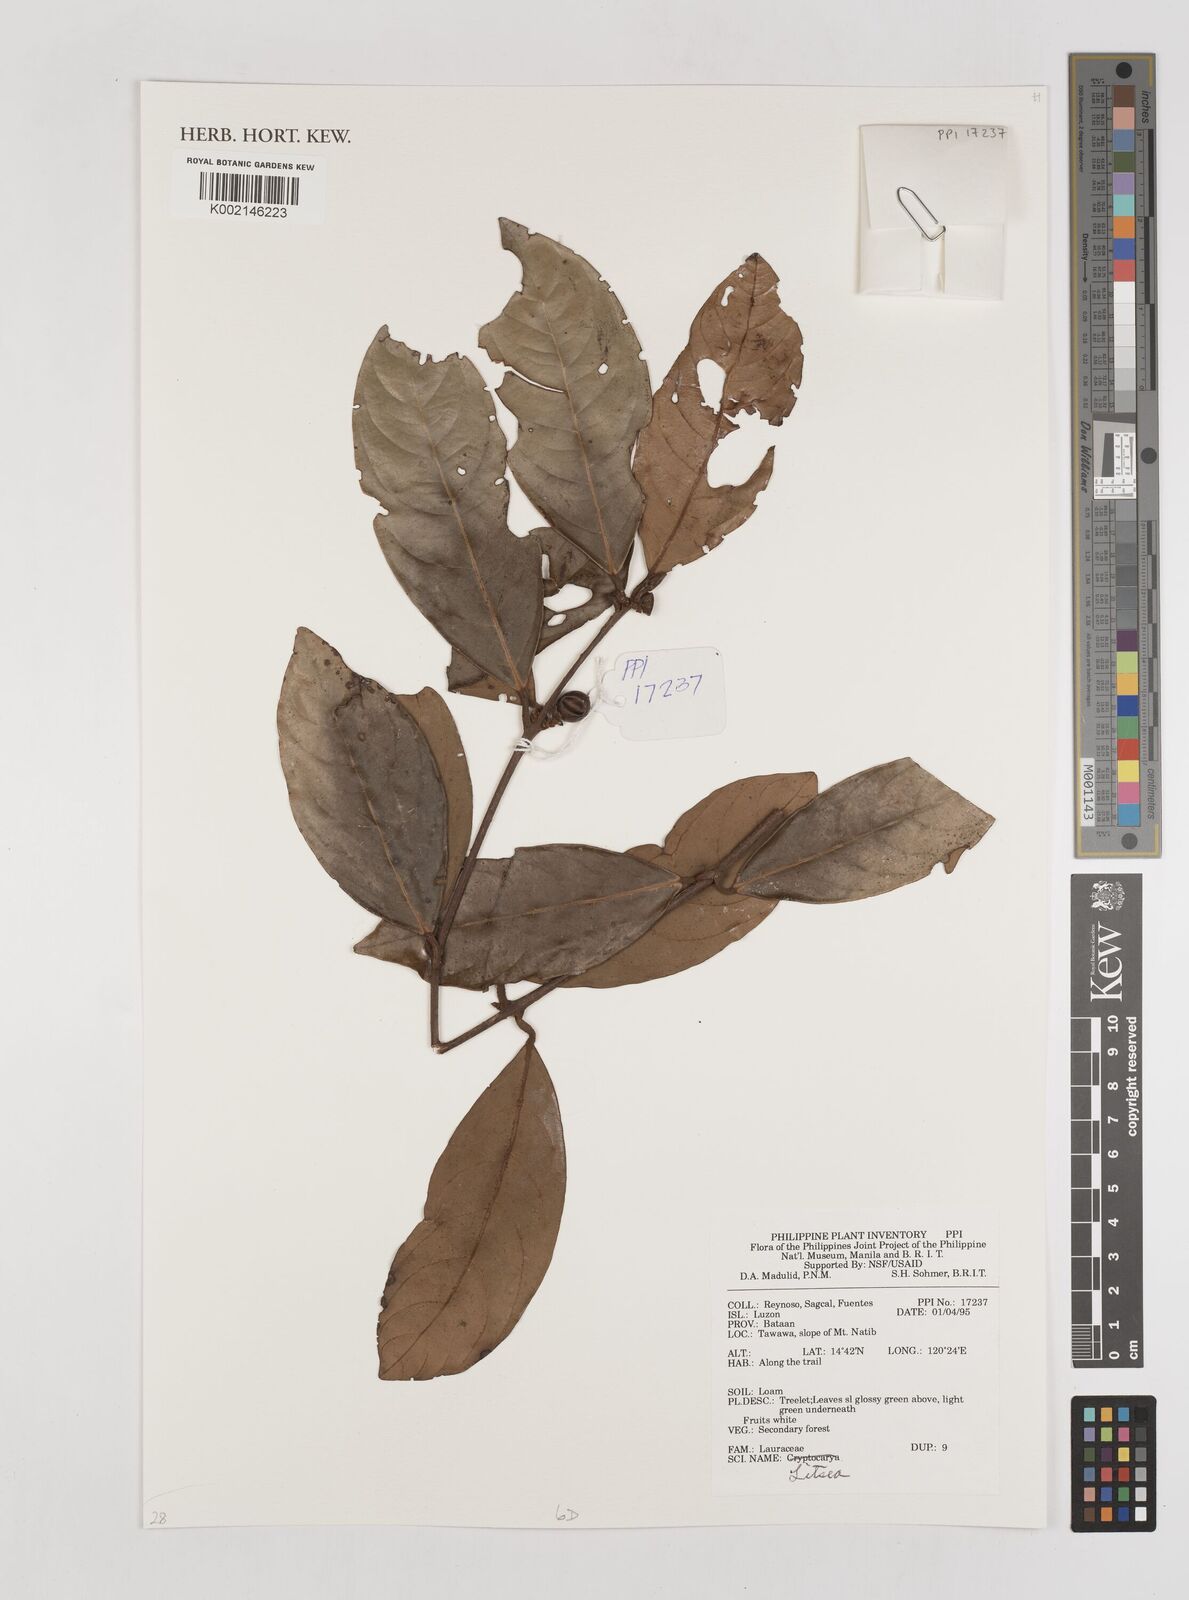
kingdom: Plantae
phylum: Tracheophyta
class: Magnoliopsida
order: Laurales
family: Lauraceae
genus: Litsea
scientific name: Litsea
